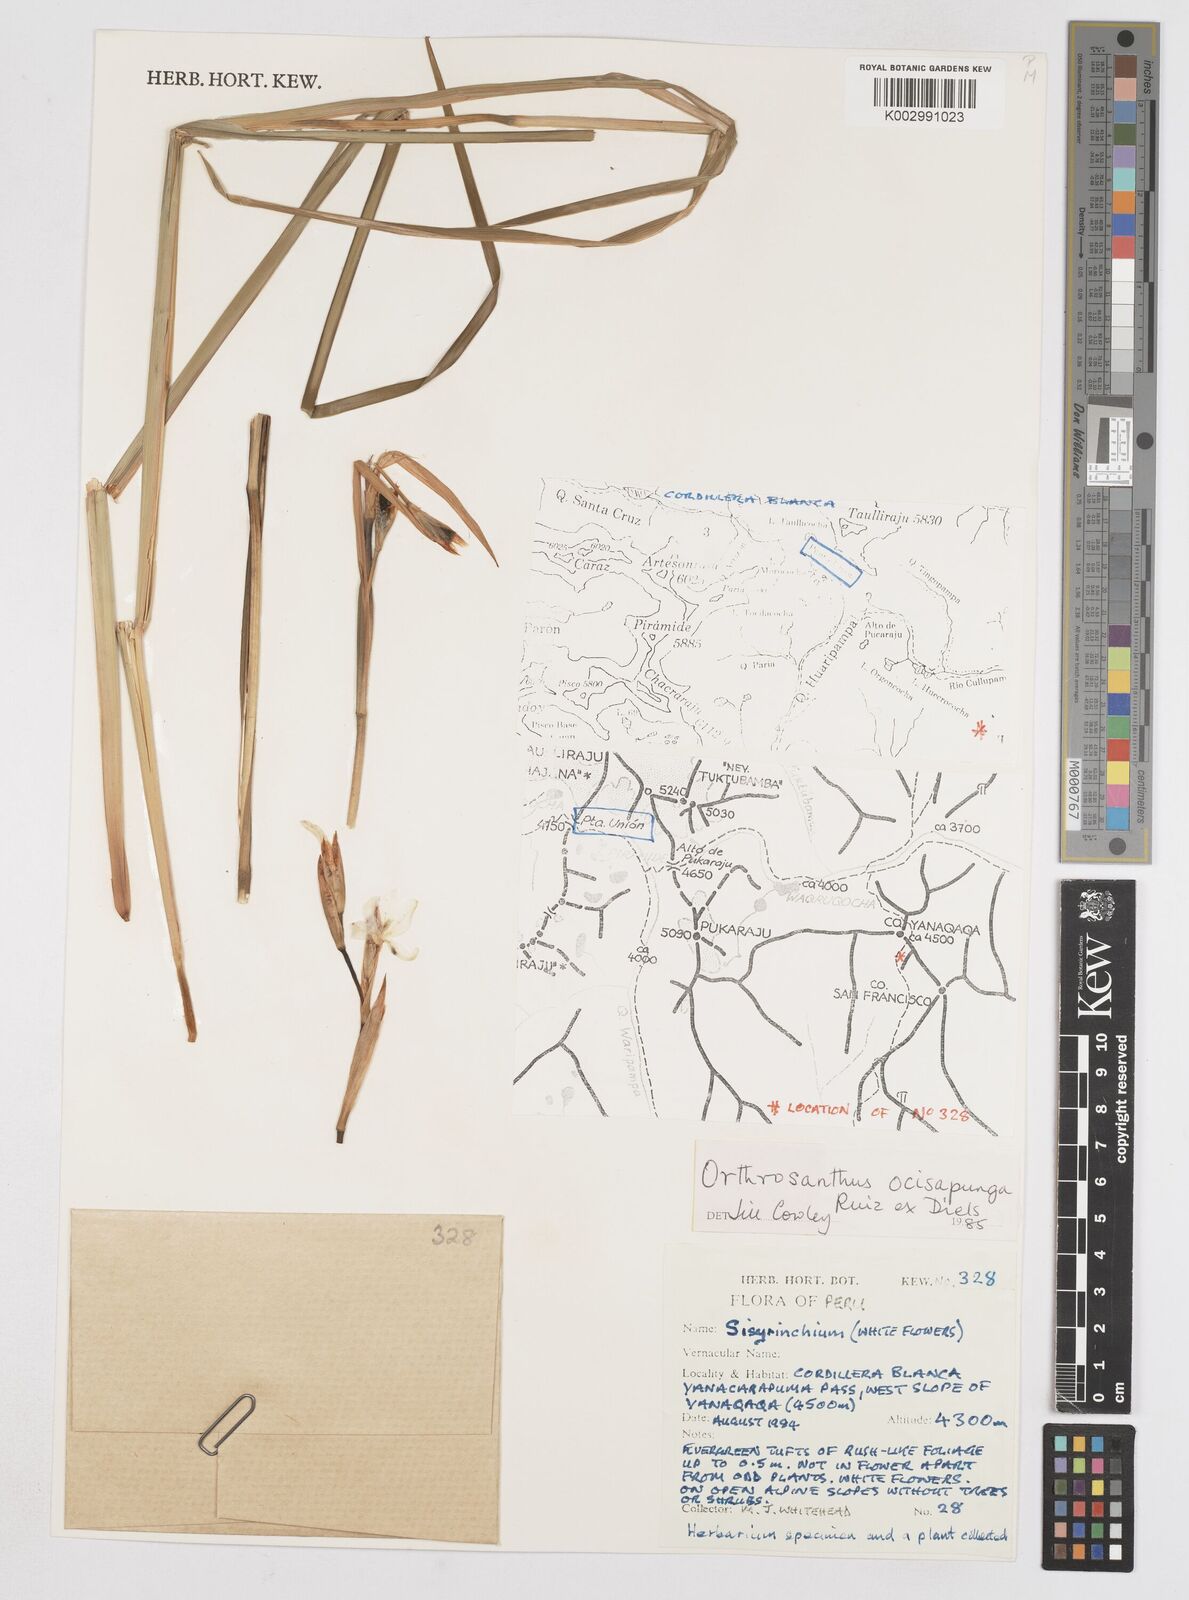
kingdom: Plantae
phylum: Tracheophyta
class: Liliopsida
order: Asparagales
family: Iridaceae
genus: Orthrosanthus
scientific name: Orthrosanthus occissapungus
